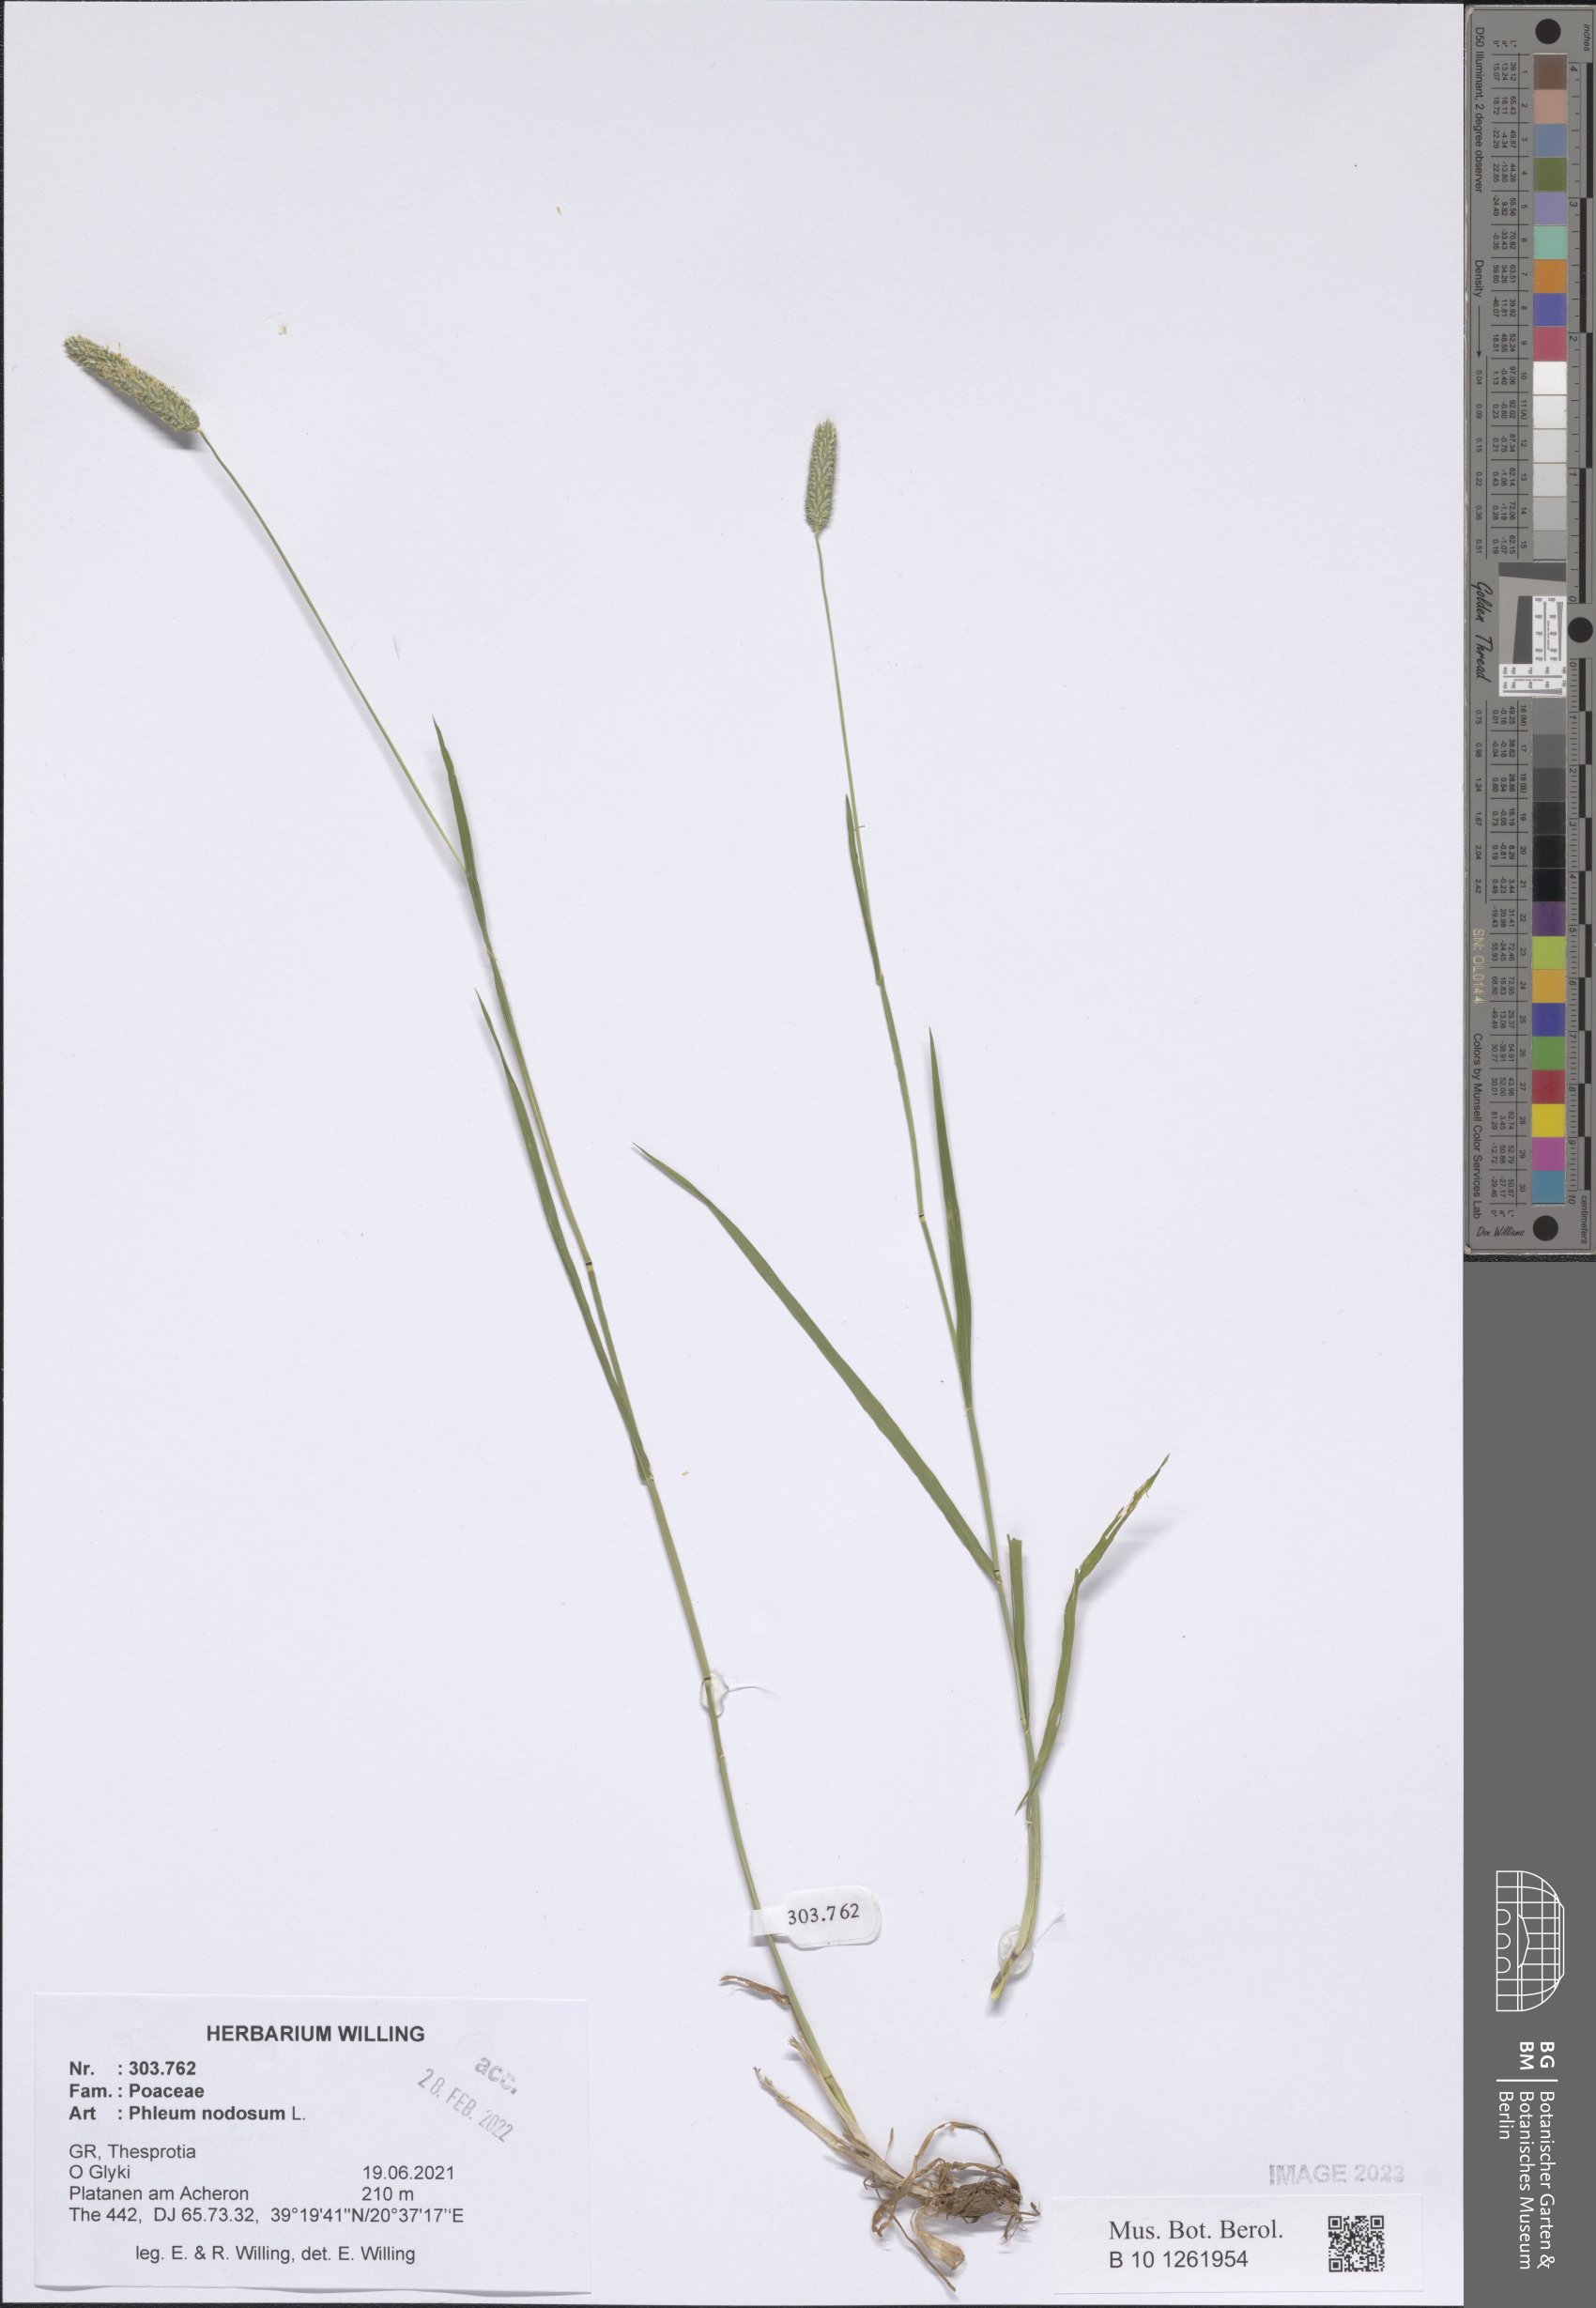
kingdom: Plantae
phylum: Tracheophyta
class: Liliopsida
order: Poales
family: Poaceae
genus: Phleum
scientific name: Phleum pratense
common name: Timothy grass
